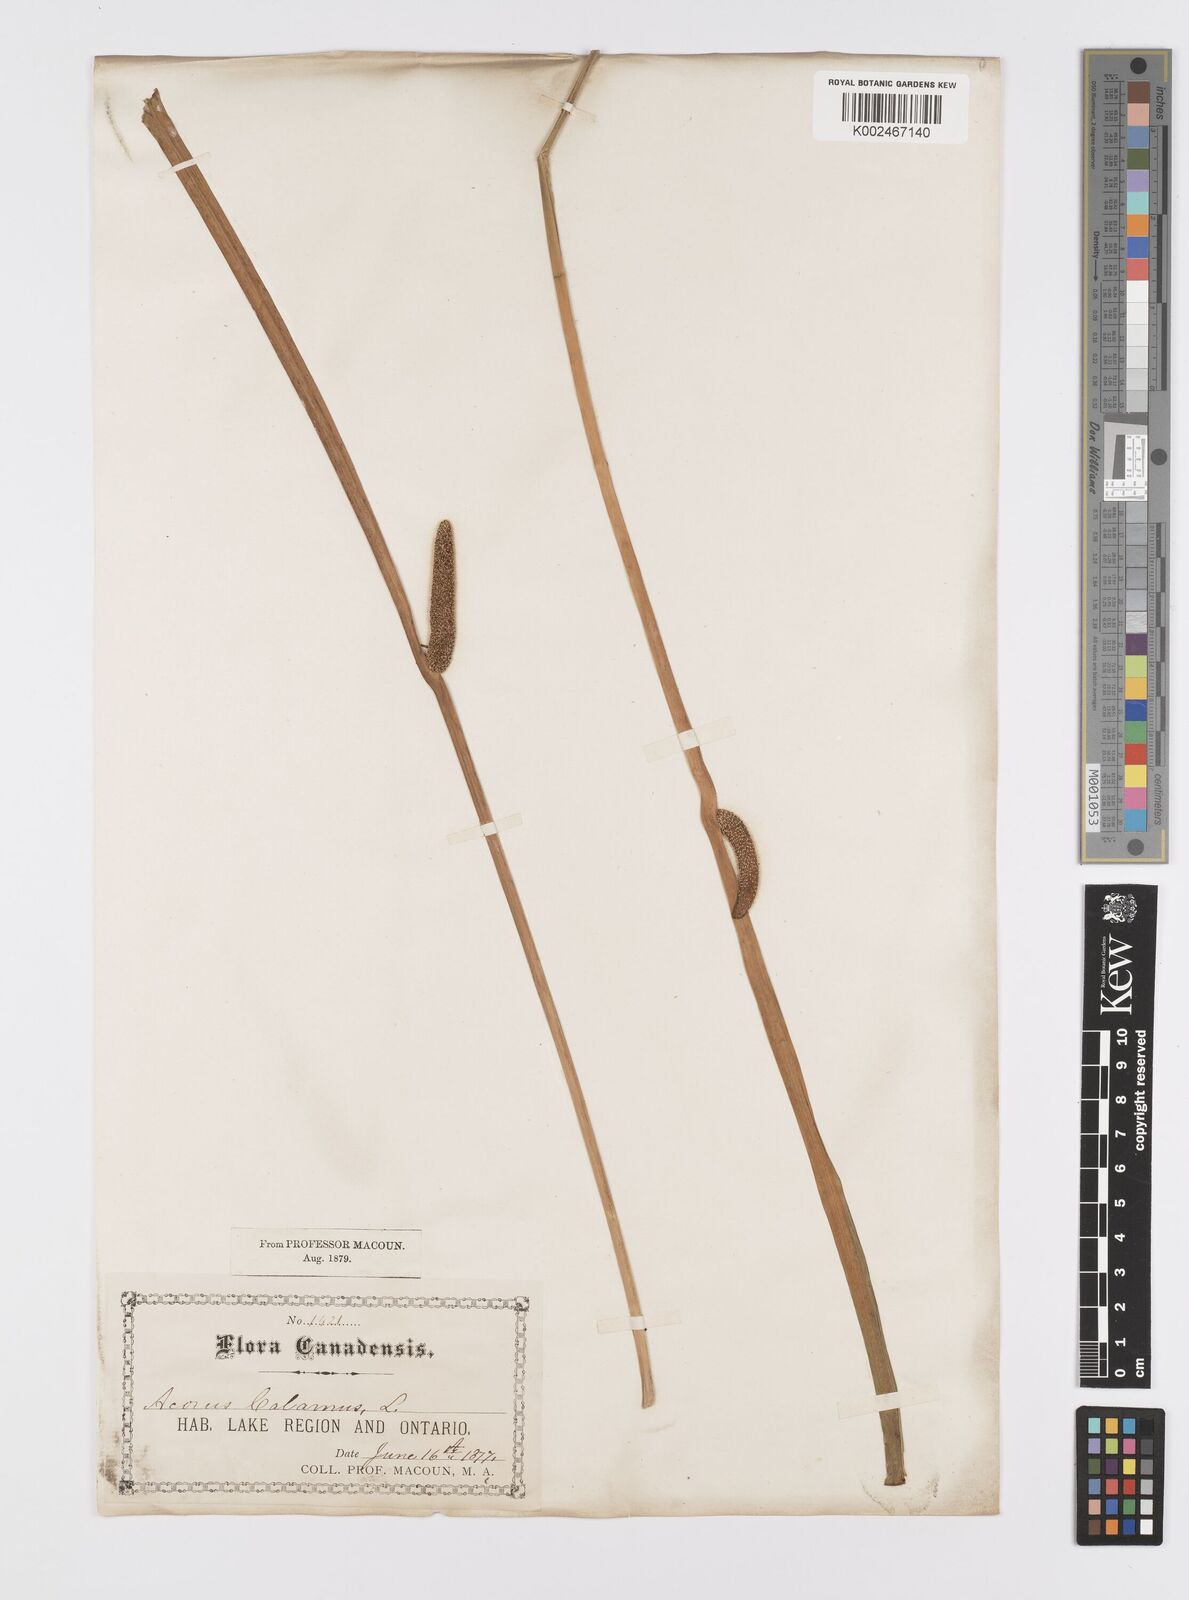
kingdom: Plantae
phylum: Tracheophyta
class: Liliopsida
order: Acorales
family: Acoraceae
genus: Acorus
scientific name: Acorus calamus
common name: Sweet-flag
